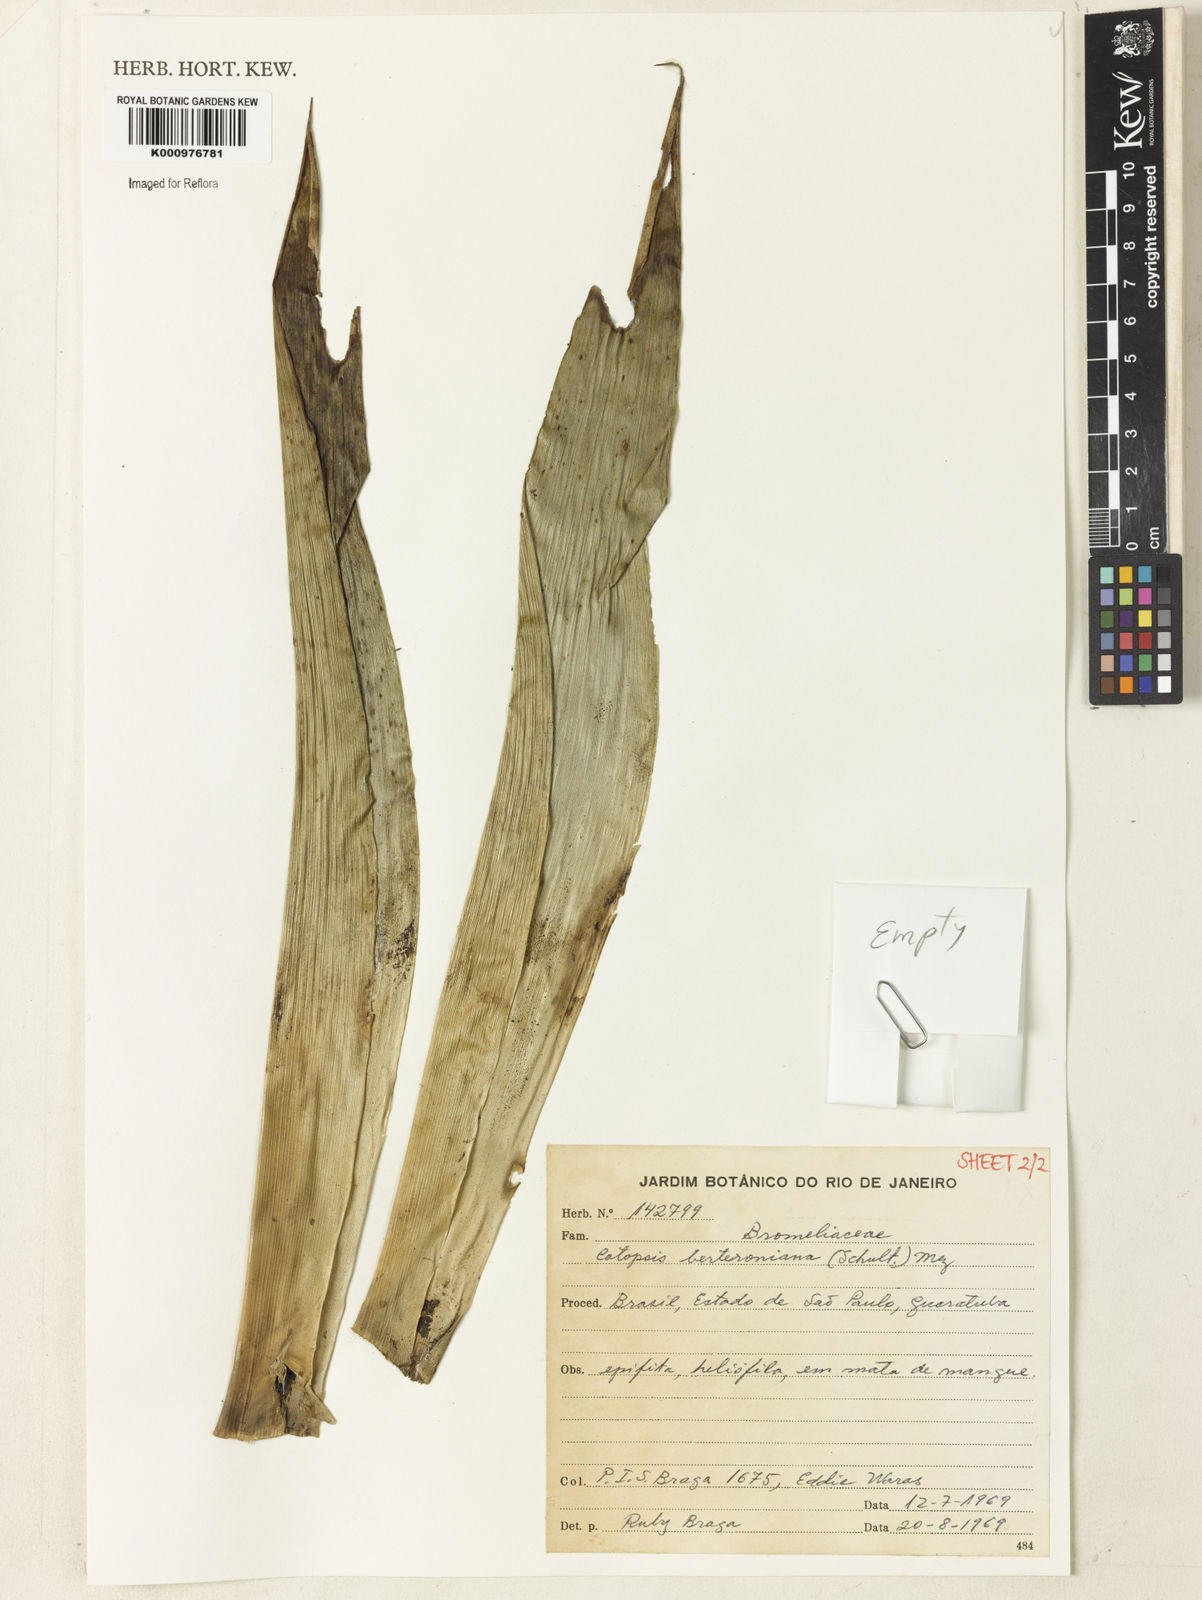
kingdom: Plantae
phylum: Tracheophyta
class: Liliopsida
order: Poales
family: Bromeliaceae
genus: Catopsis
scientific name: Catopsis berteroniana
